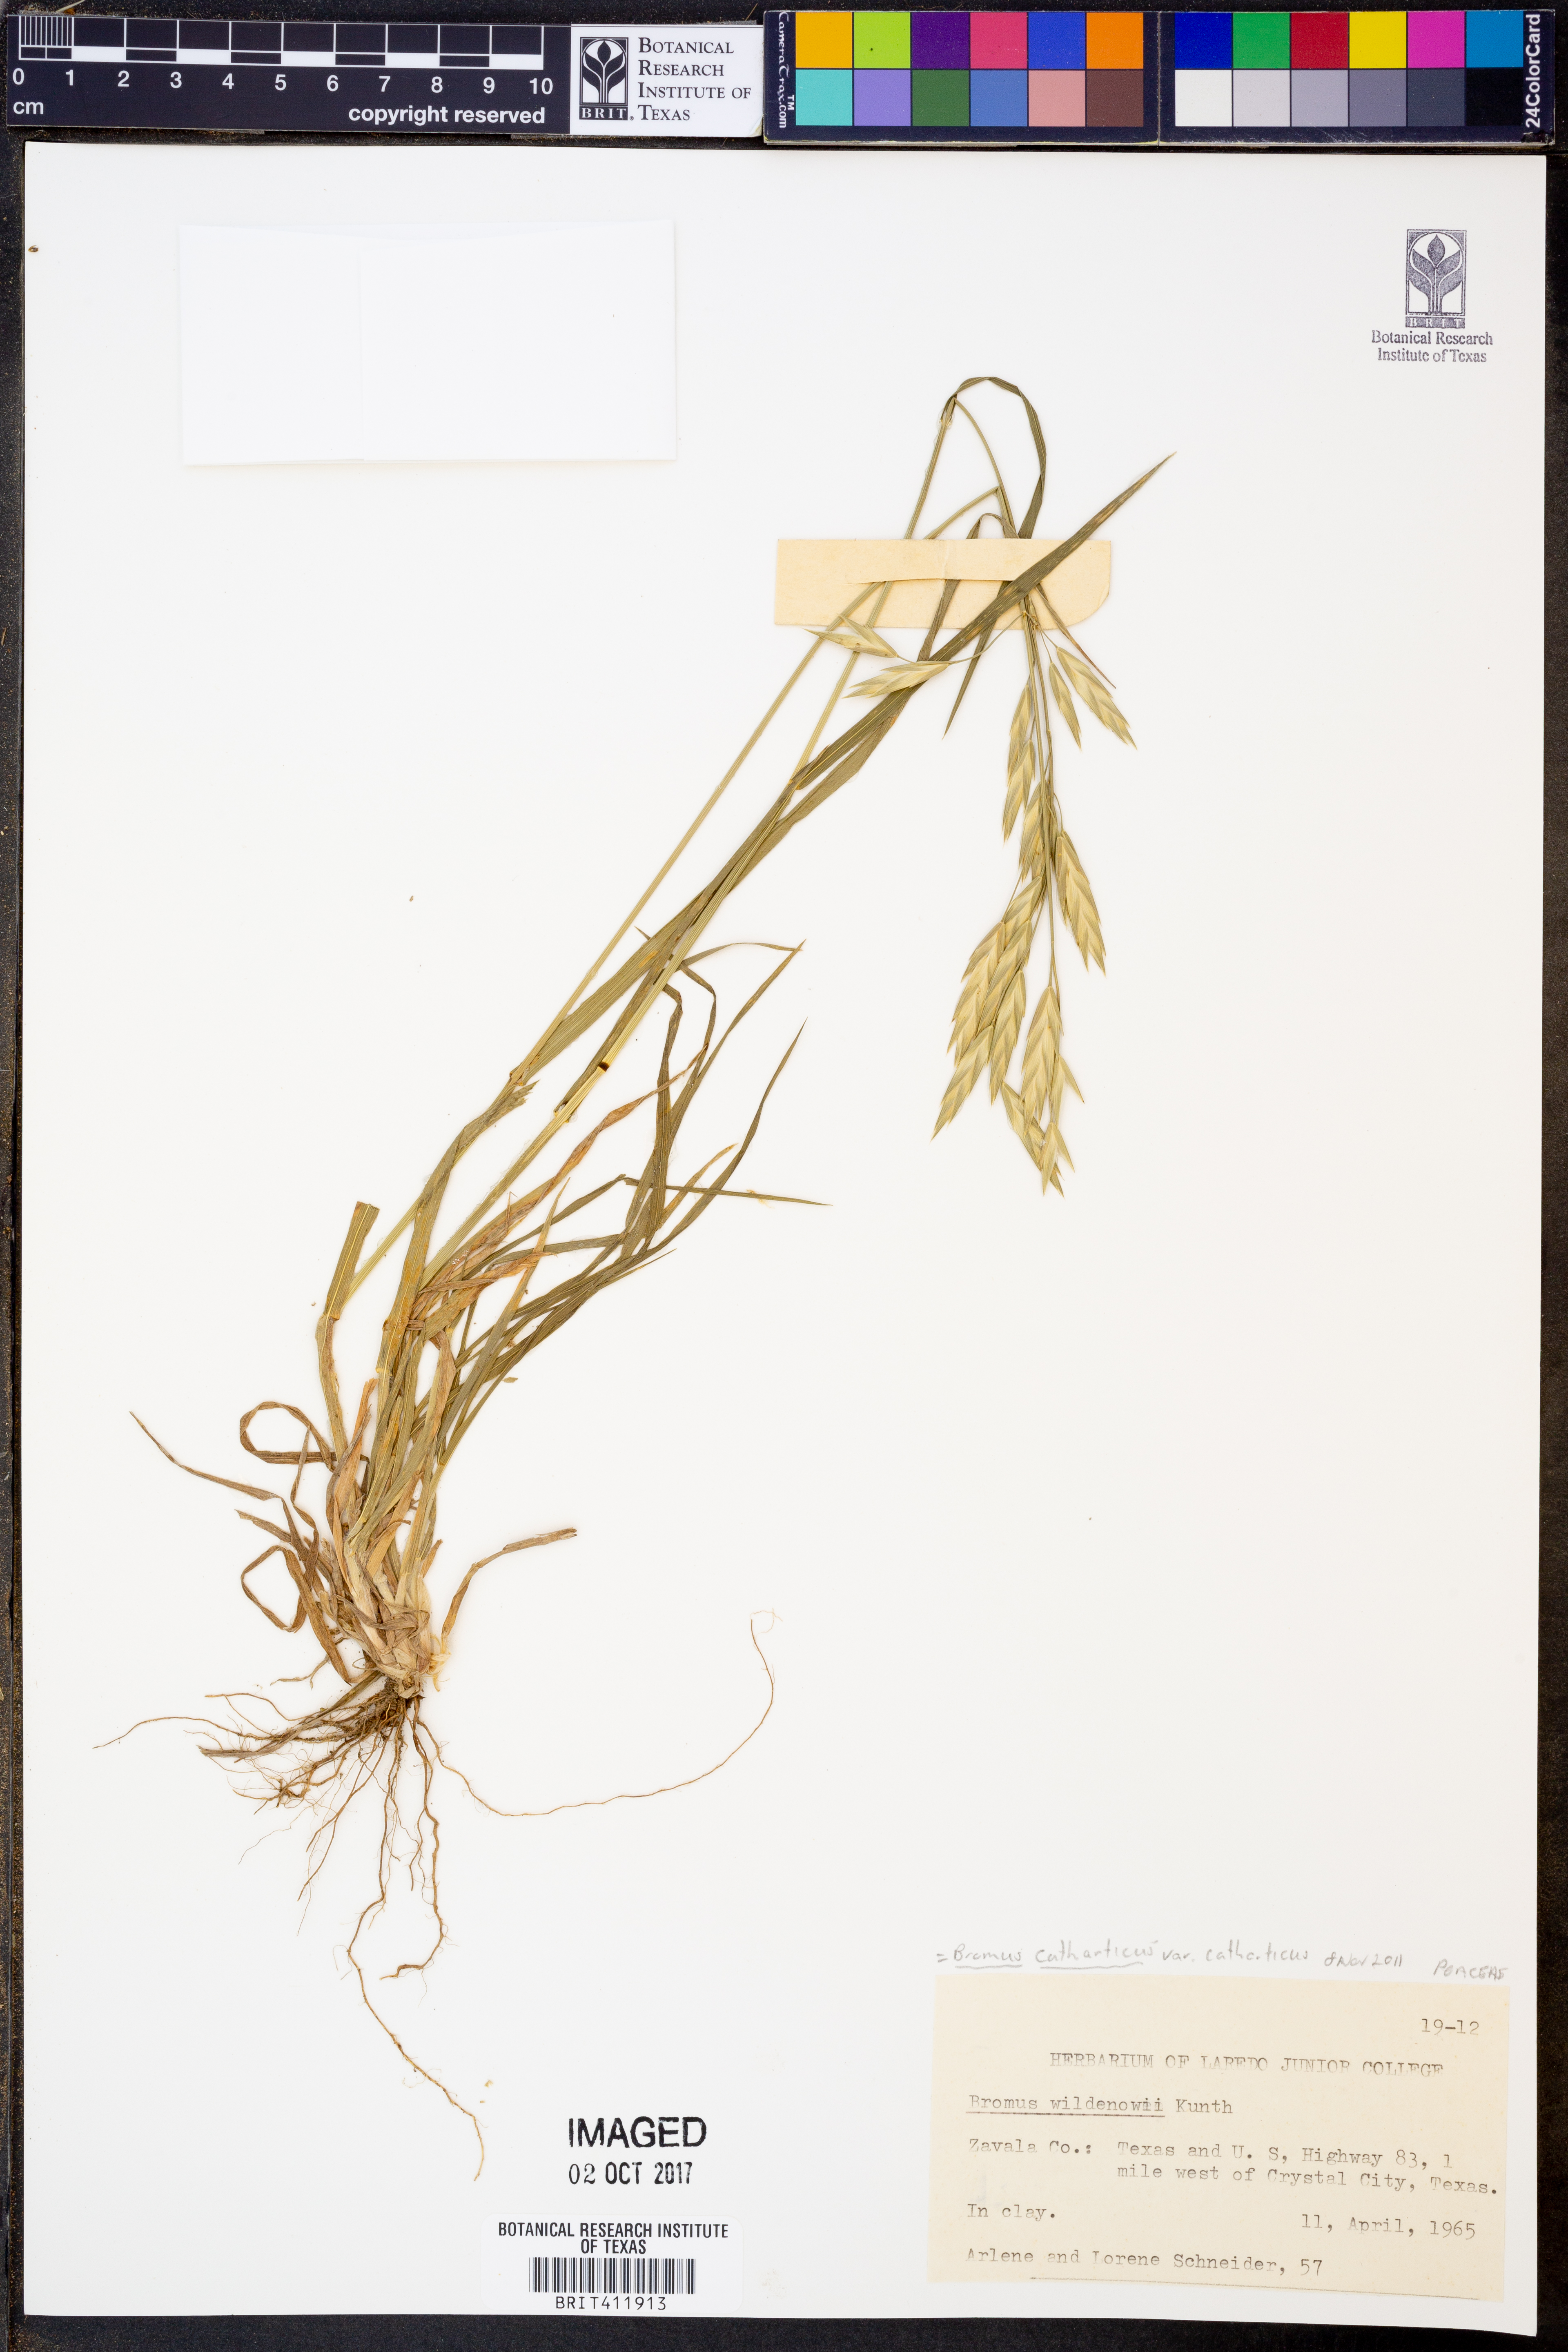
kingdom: Plantae
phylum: Tracheophyta
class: Liliopsida
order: Poales
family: Poaceae
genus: Bromus
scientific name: Bromus catharticus
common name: Rescuegrass
